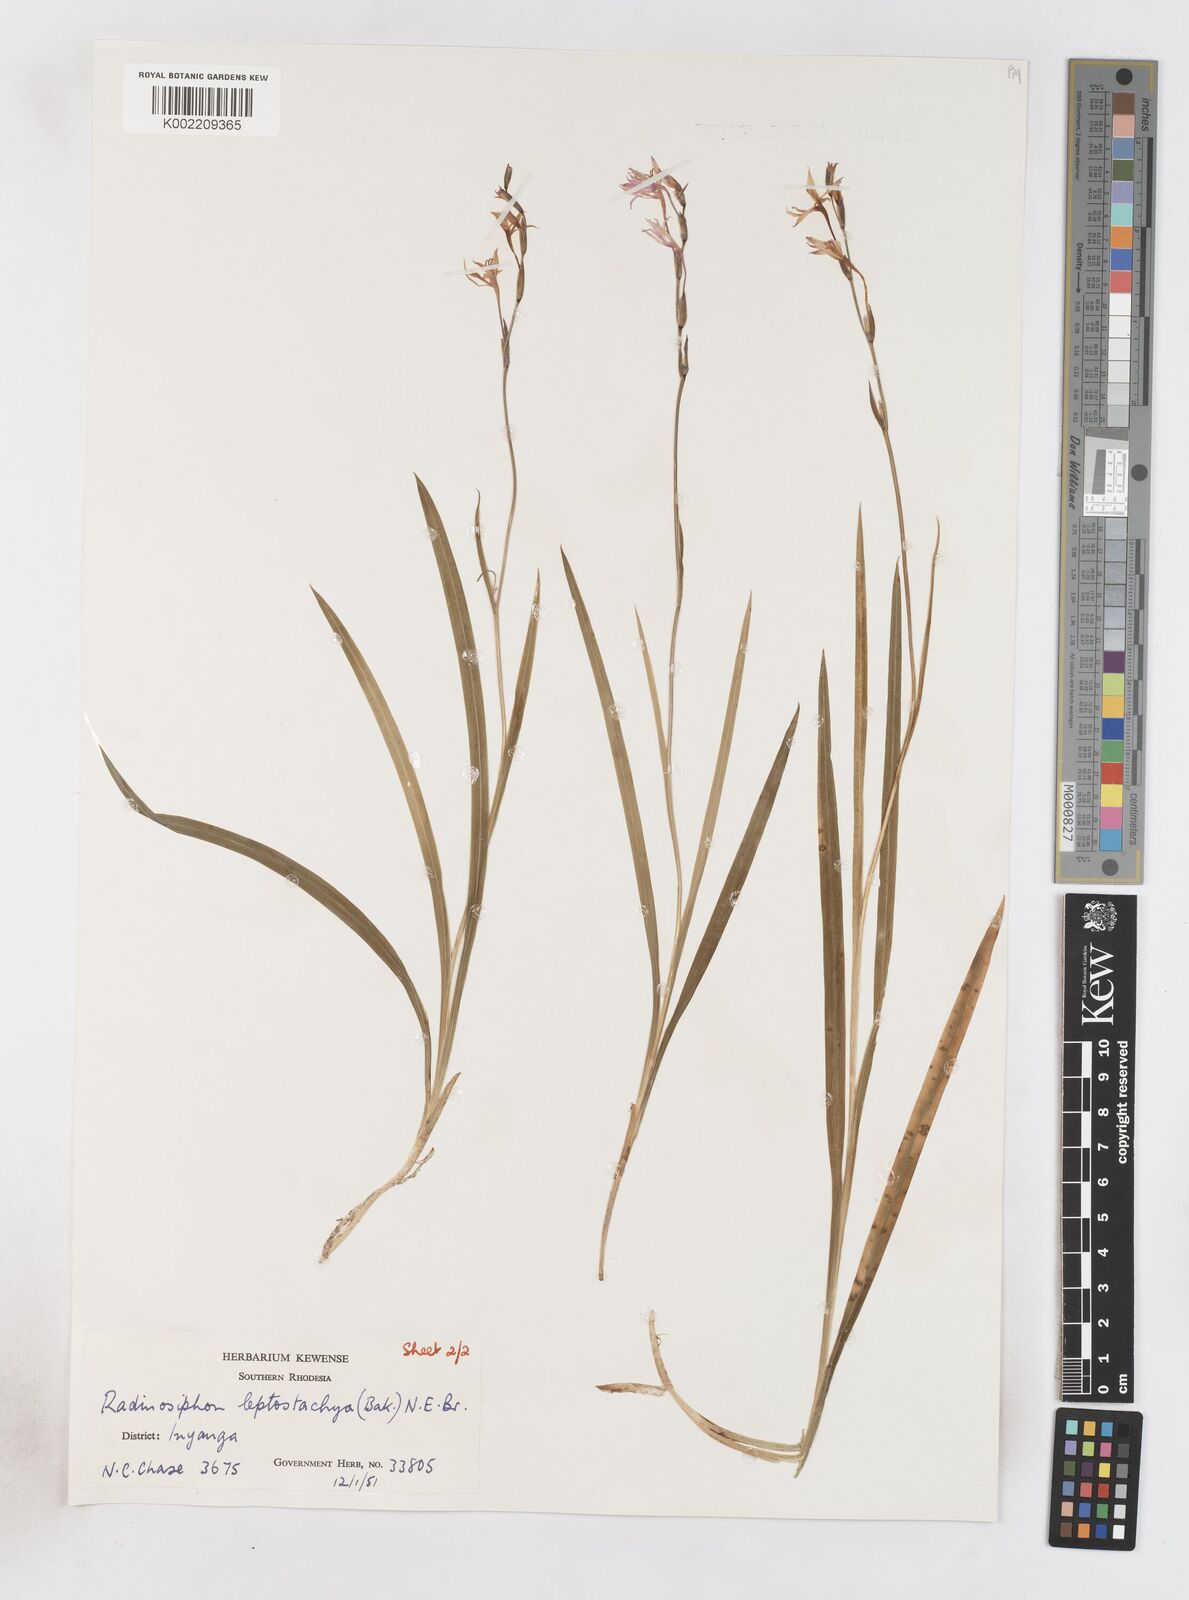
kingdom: Plantae
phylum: Tracheophyta
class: Liliopsida
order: Asparagales
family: Iridaceae
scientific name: Iridaceae
